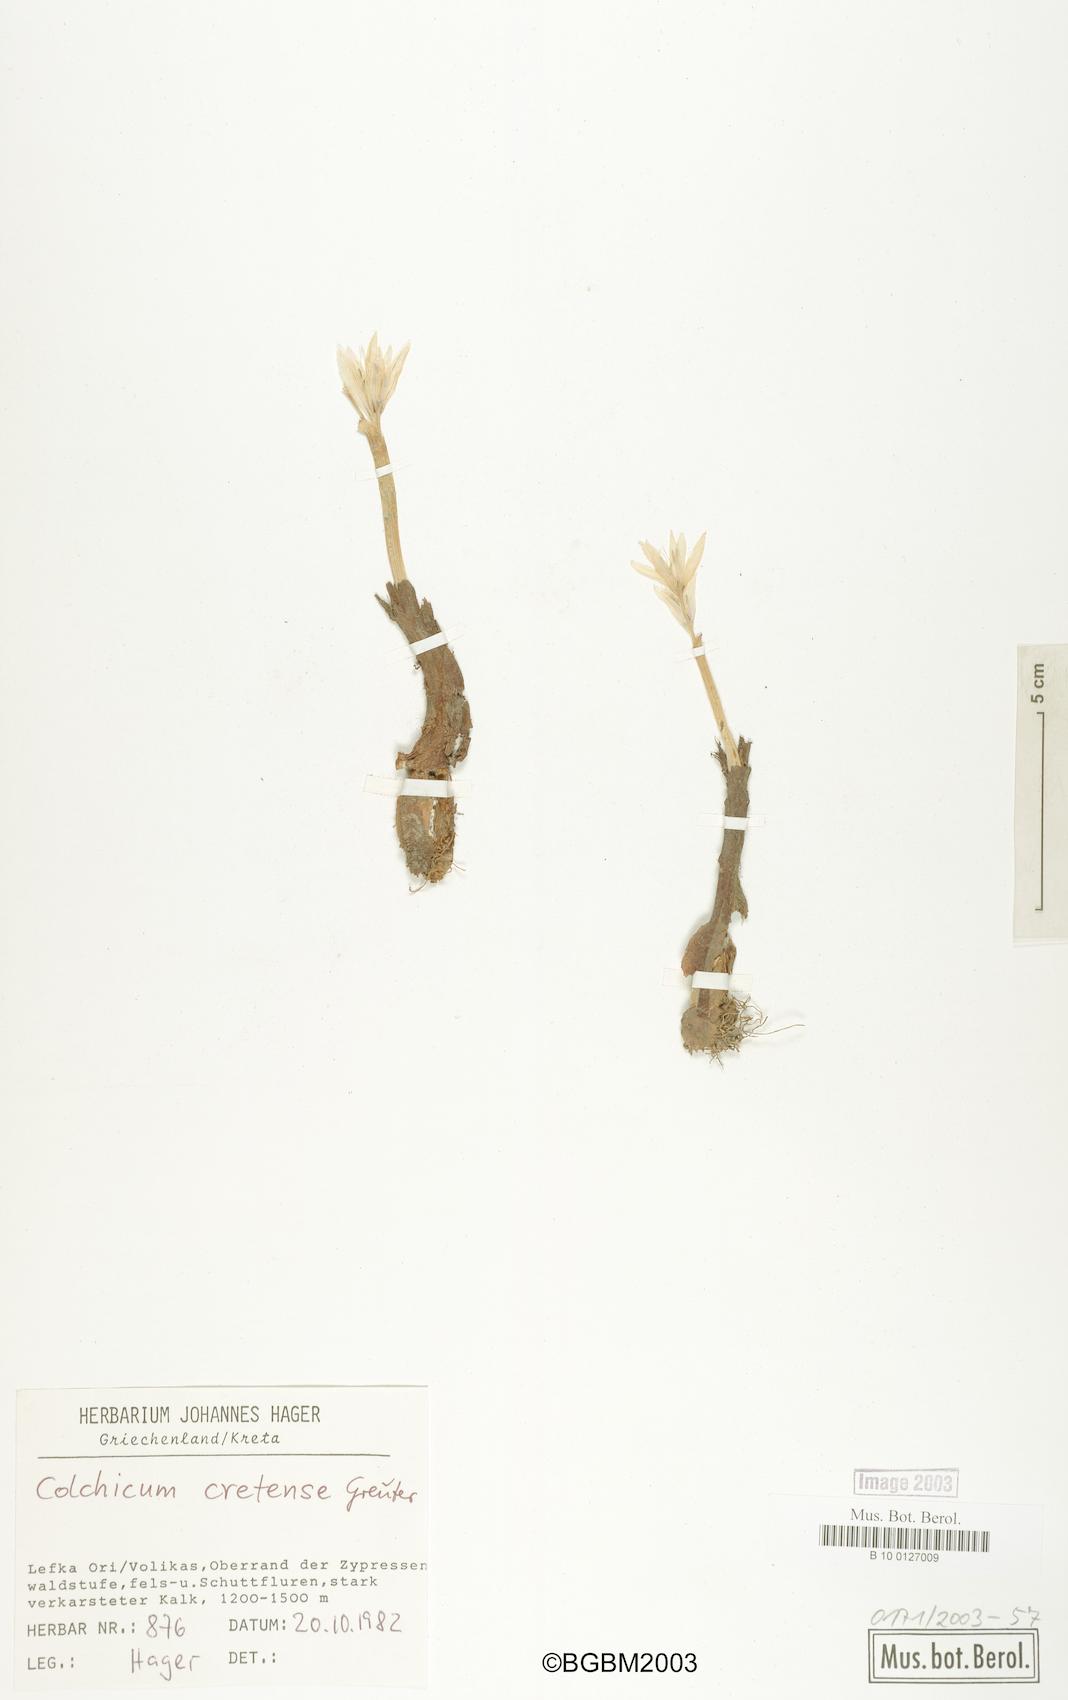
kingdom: Plantae
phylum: Tracheophyta
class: Liliopsida
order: Liliales
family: Colchicaceae
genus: Colchicum
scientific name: Colchicum cretense
